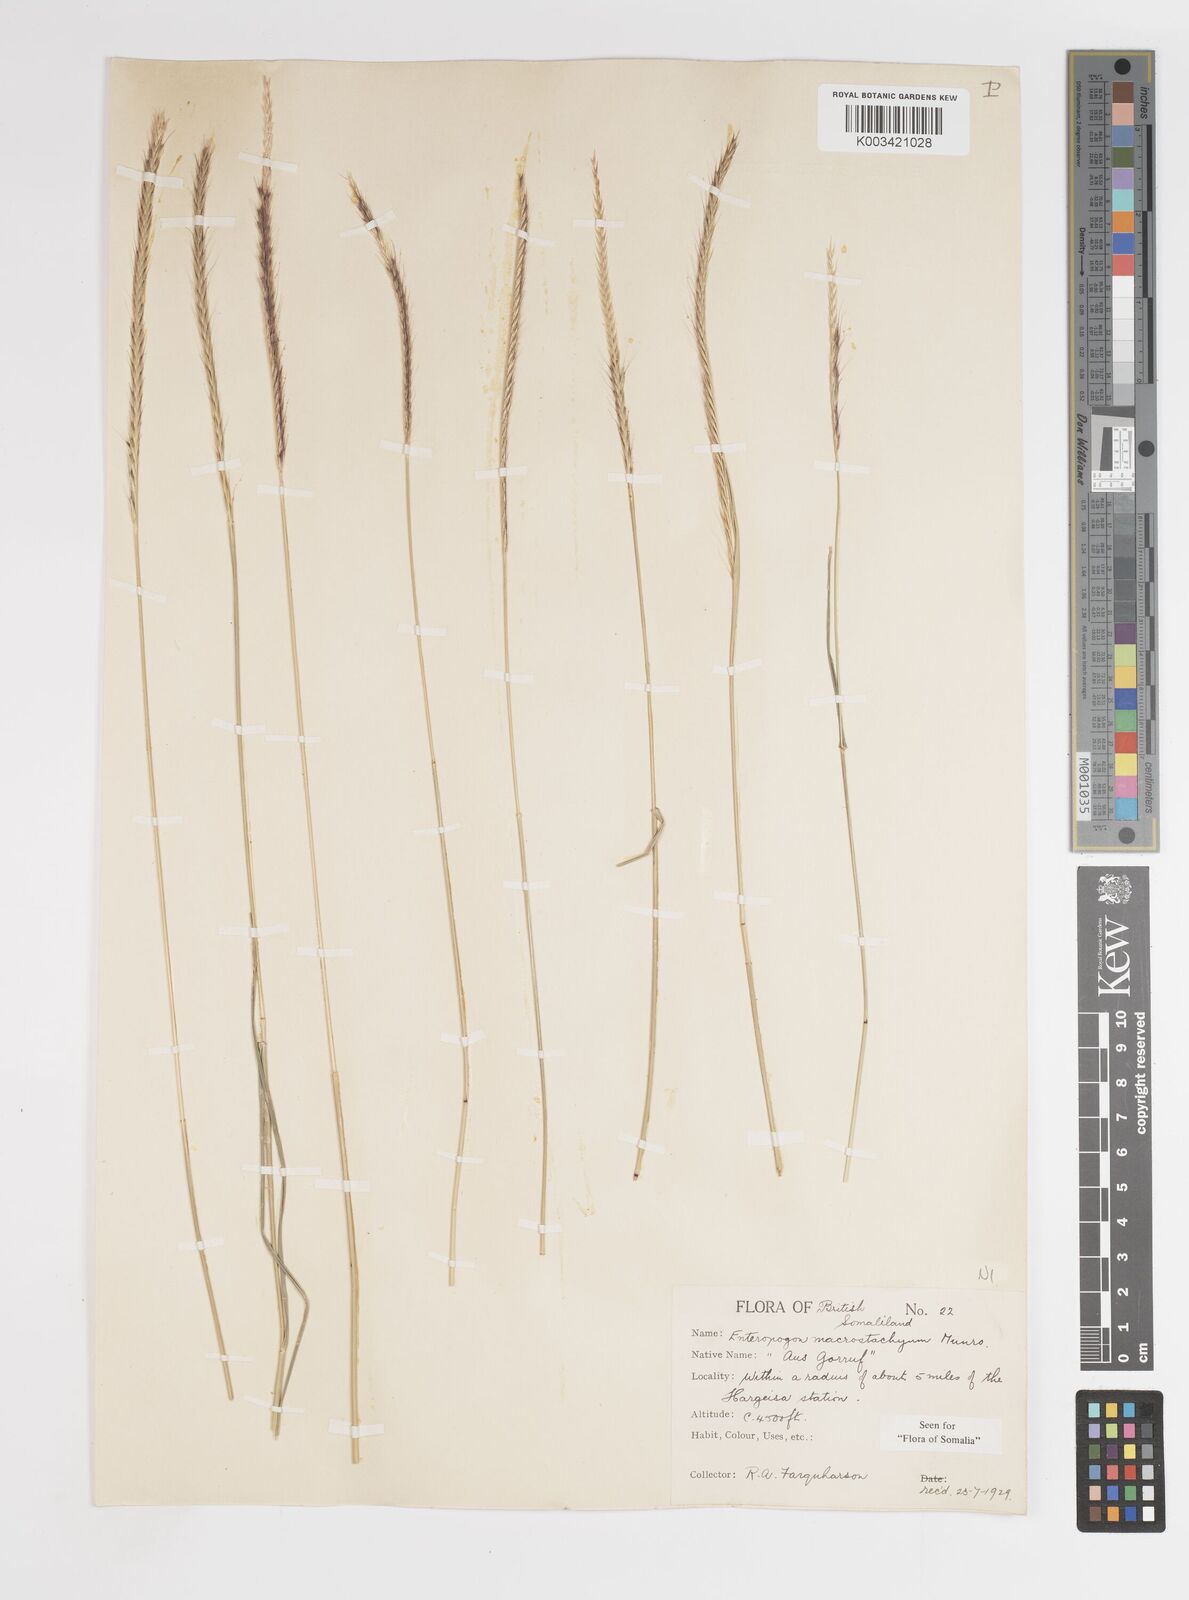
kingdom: Plantae
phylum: Tracheophyta
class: Liliopsida
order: Poales
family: Poaceae
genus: Enteropogon
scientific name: Enteropogon macrostachyus
